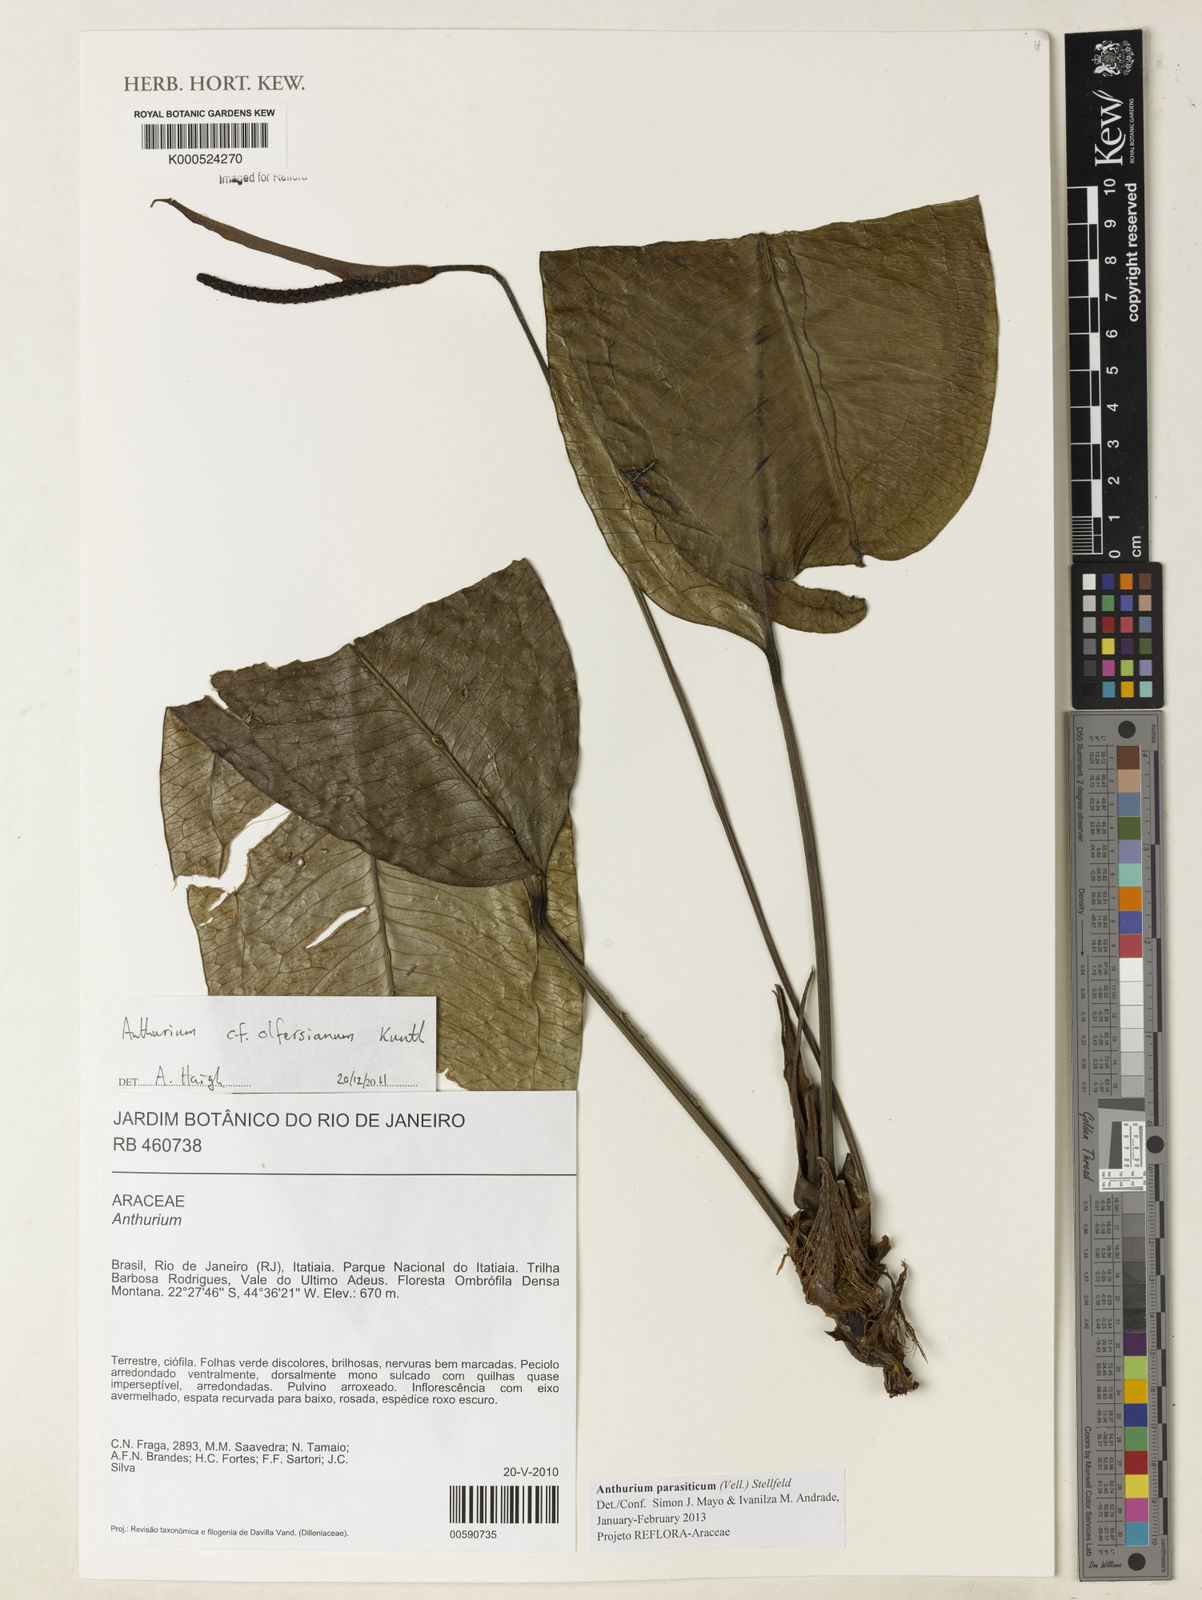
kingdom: Plantae
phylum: Tracheophyta
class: Liliopsida
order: Alismatales
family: Araceae
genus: Anthurium
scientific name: Anthurium parasiticum
